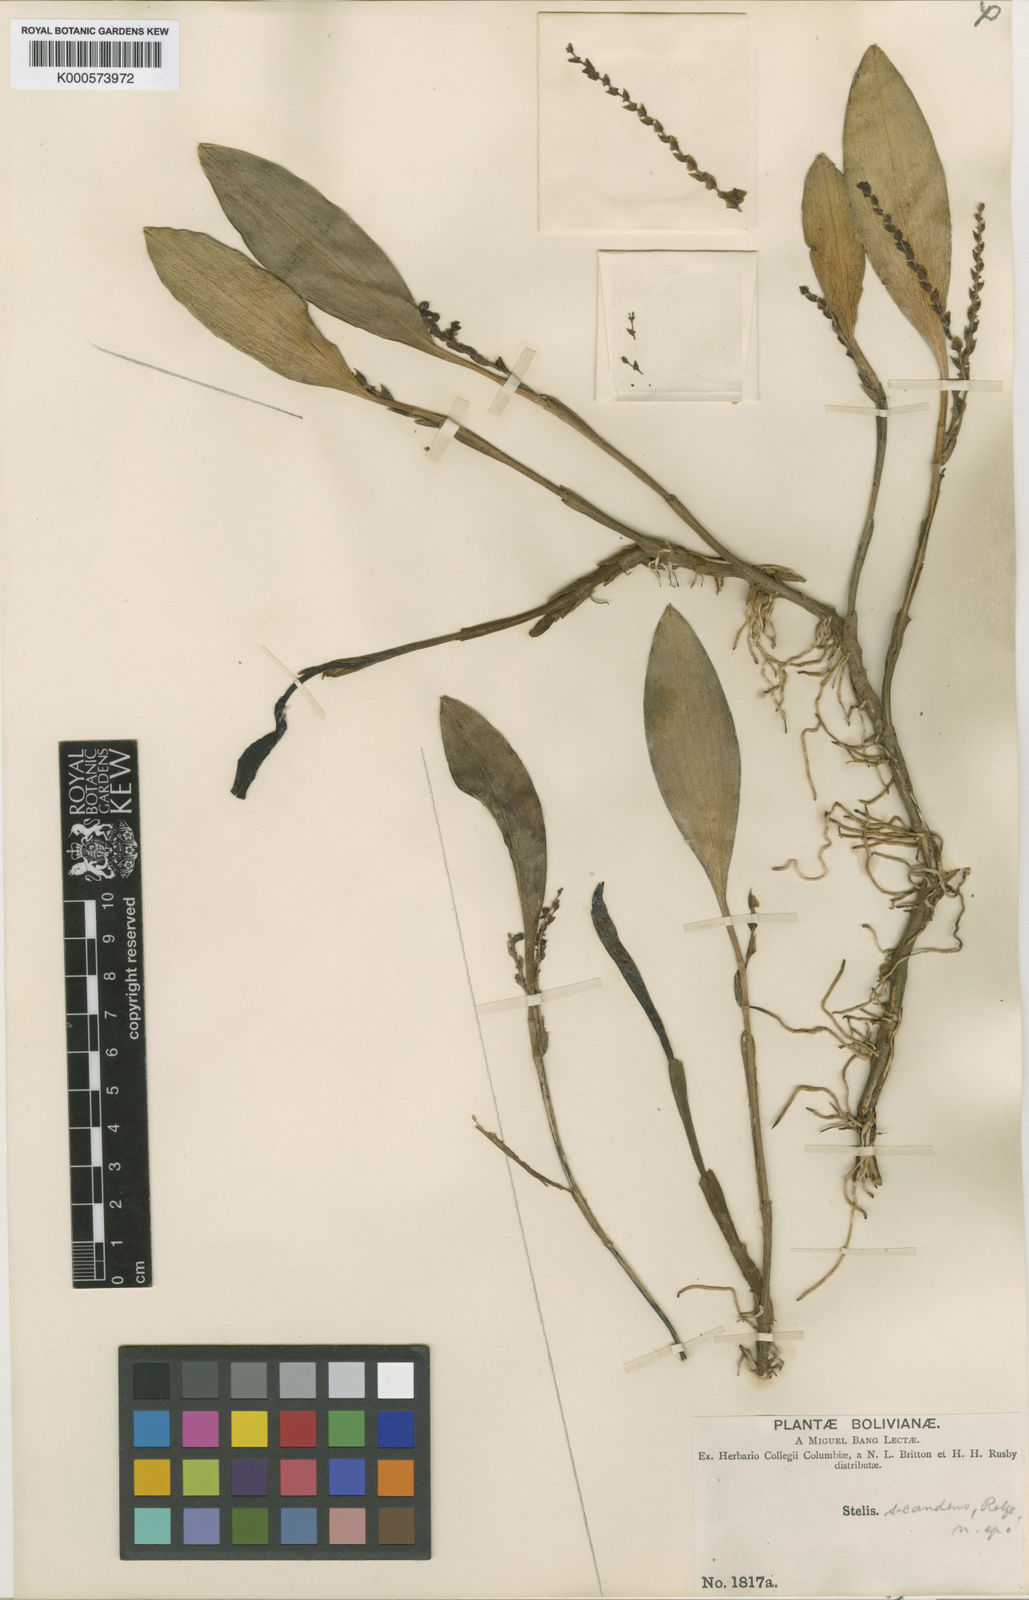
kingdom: Plantae
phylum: Tracheophyta
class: Liliopsida
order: Asparagales
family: Orchidaceae
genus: Stelis
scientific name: Stelis scandens
